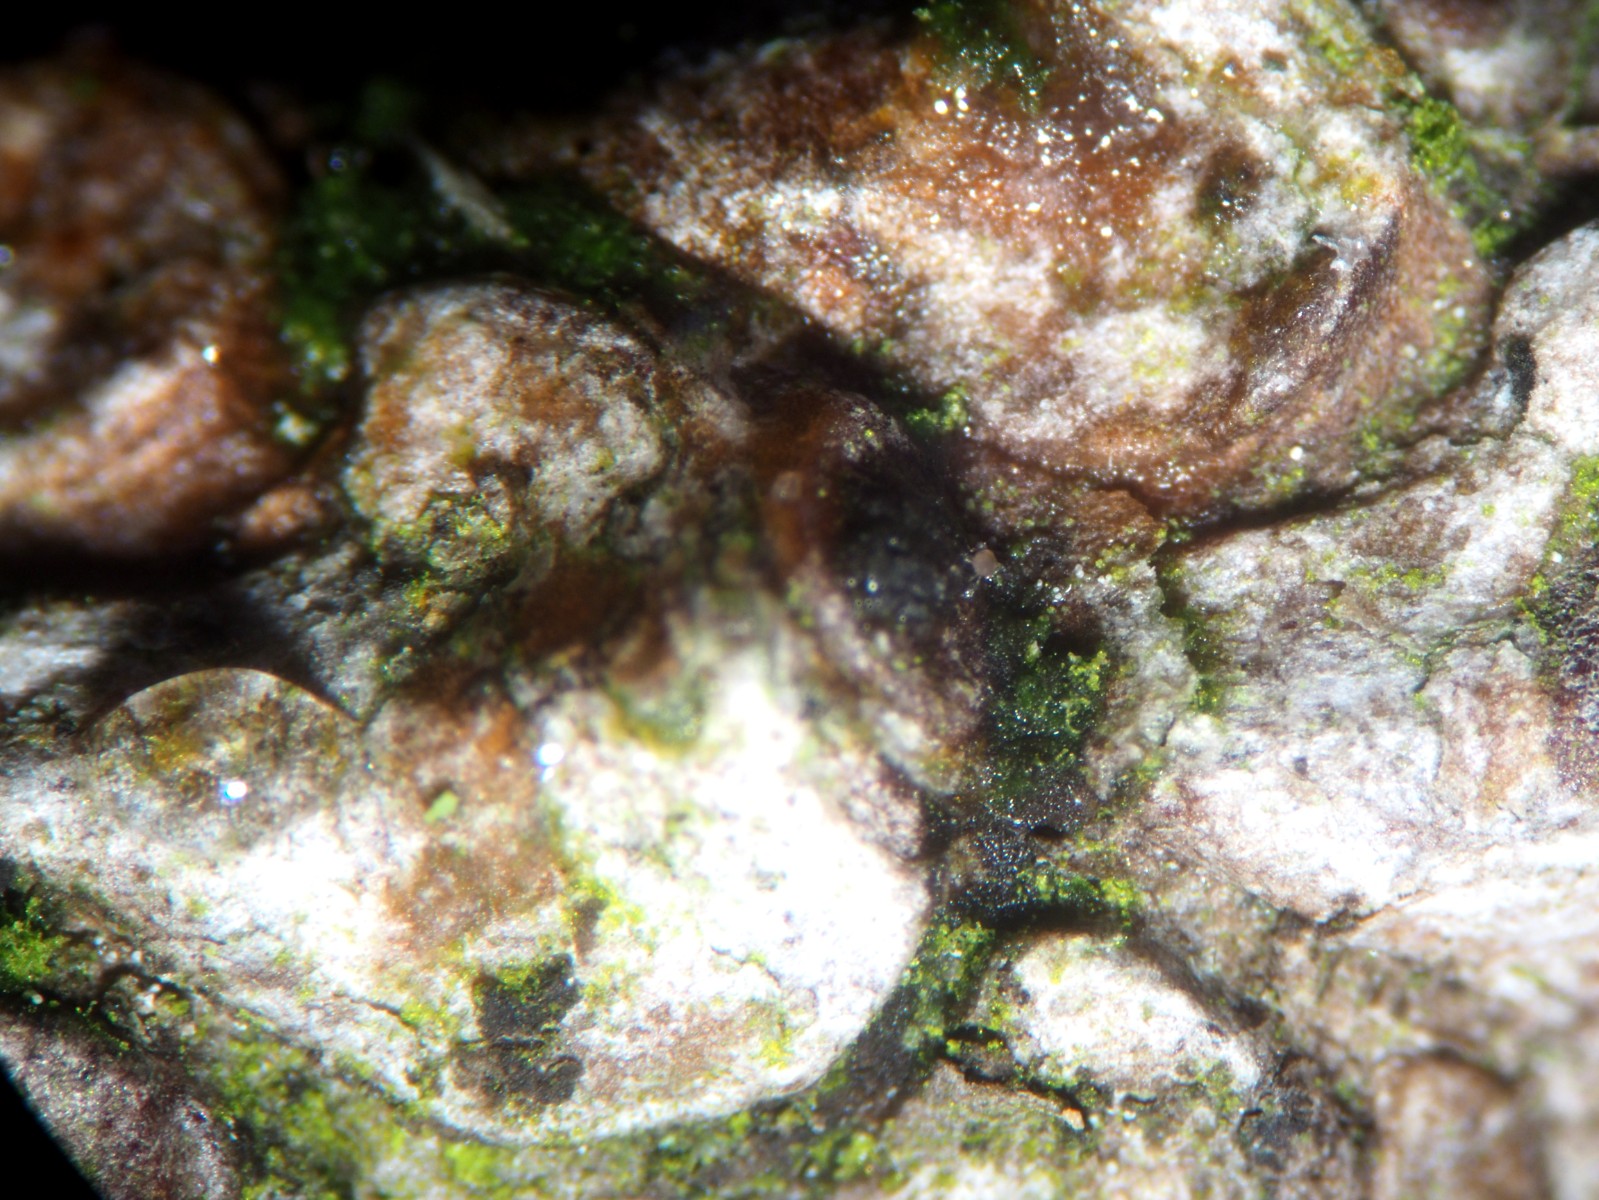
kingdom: Fungi
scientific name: Fungi
